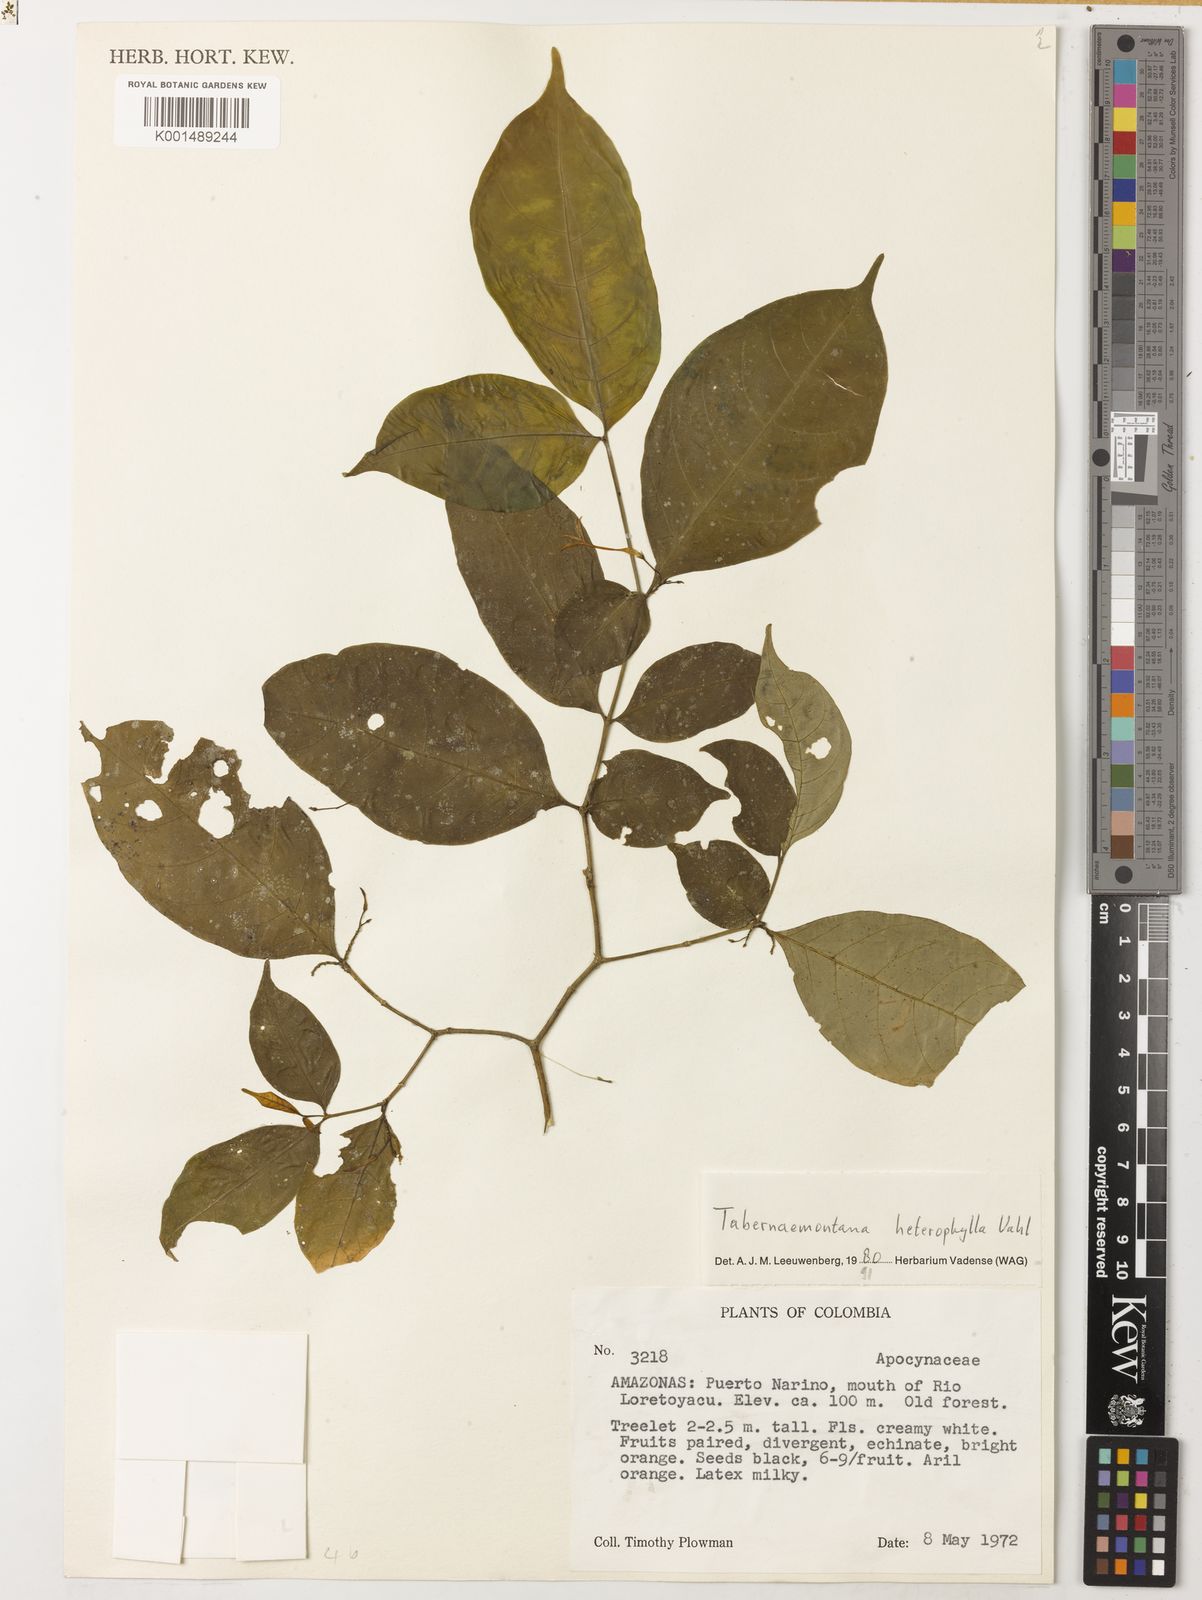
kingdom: Plantae
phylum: Tracheophyta
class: Magnoliopsida
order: Gentianales
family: Apocynaceae
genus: Tabernaemontana
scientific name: Tabernaemontana heterophylla
